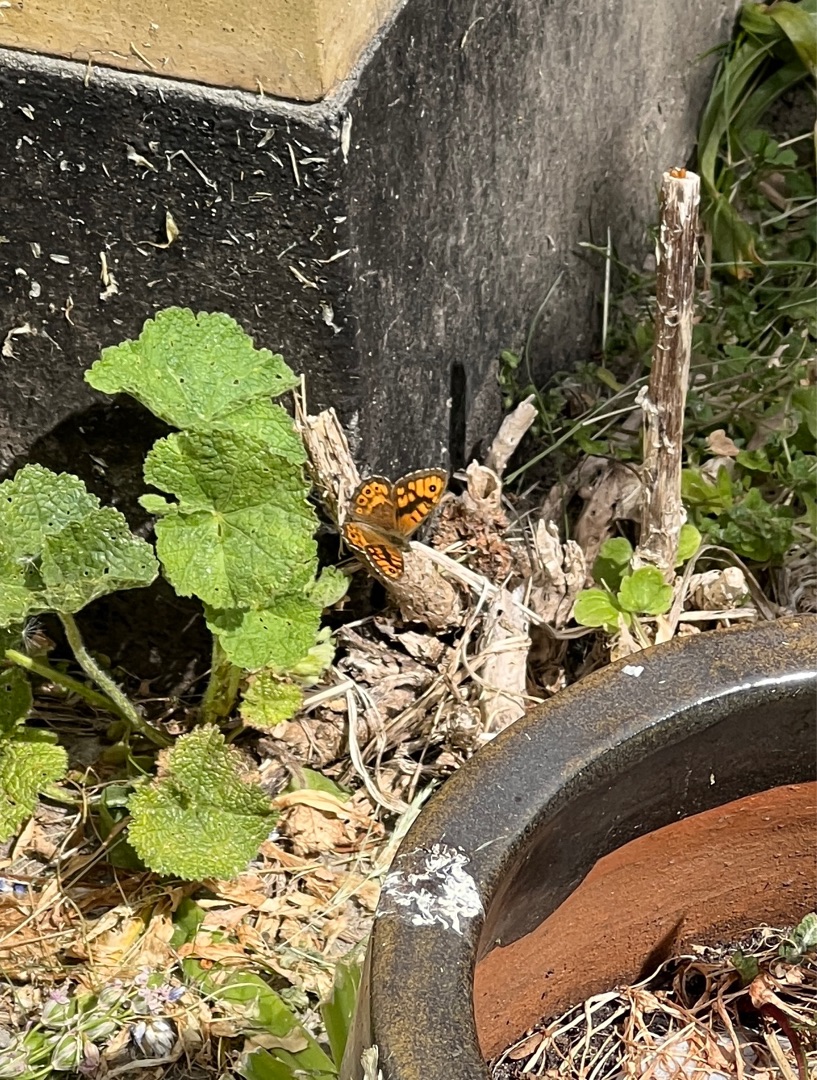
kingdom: Animalia
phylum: Arthropoda
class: Insecta
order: Lepidoptera
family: Nymphalidae
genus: Pararge
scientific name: Pararge Lasiommata megera
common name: Vejrandøje
